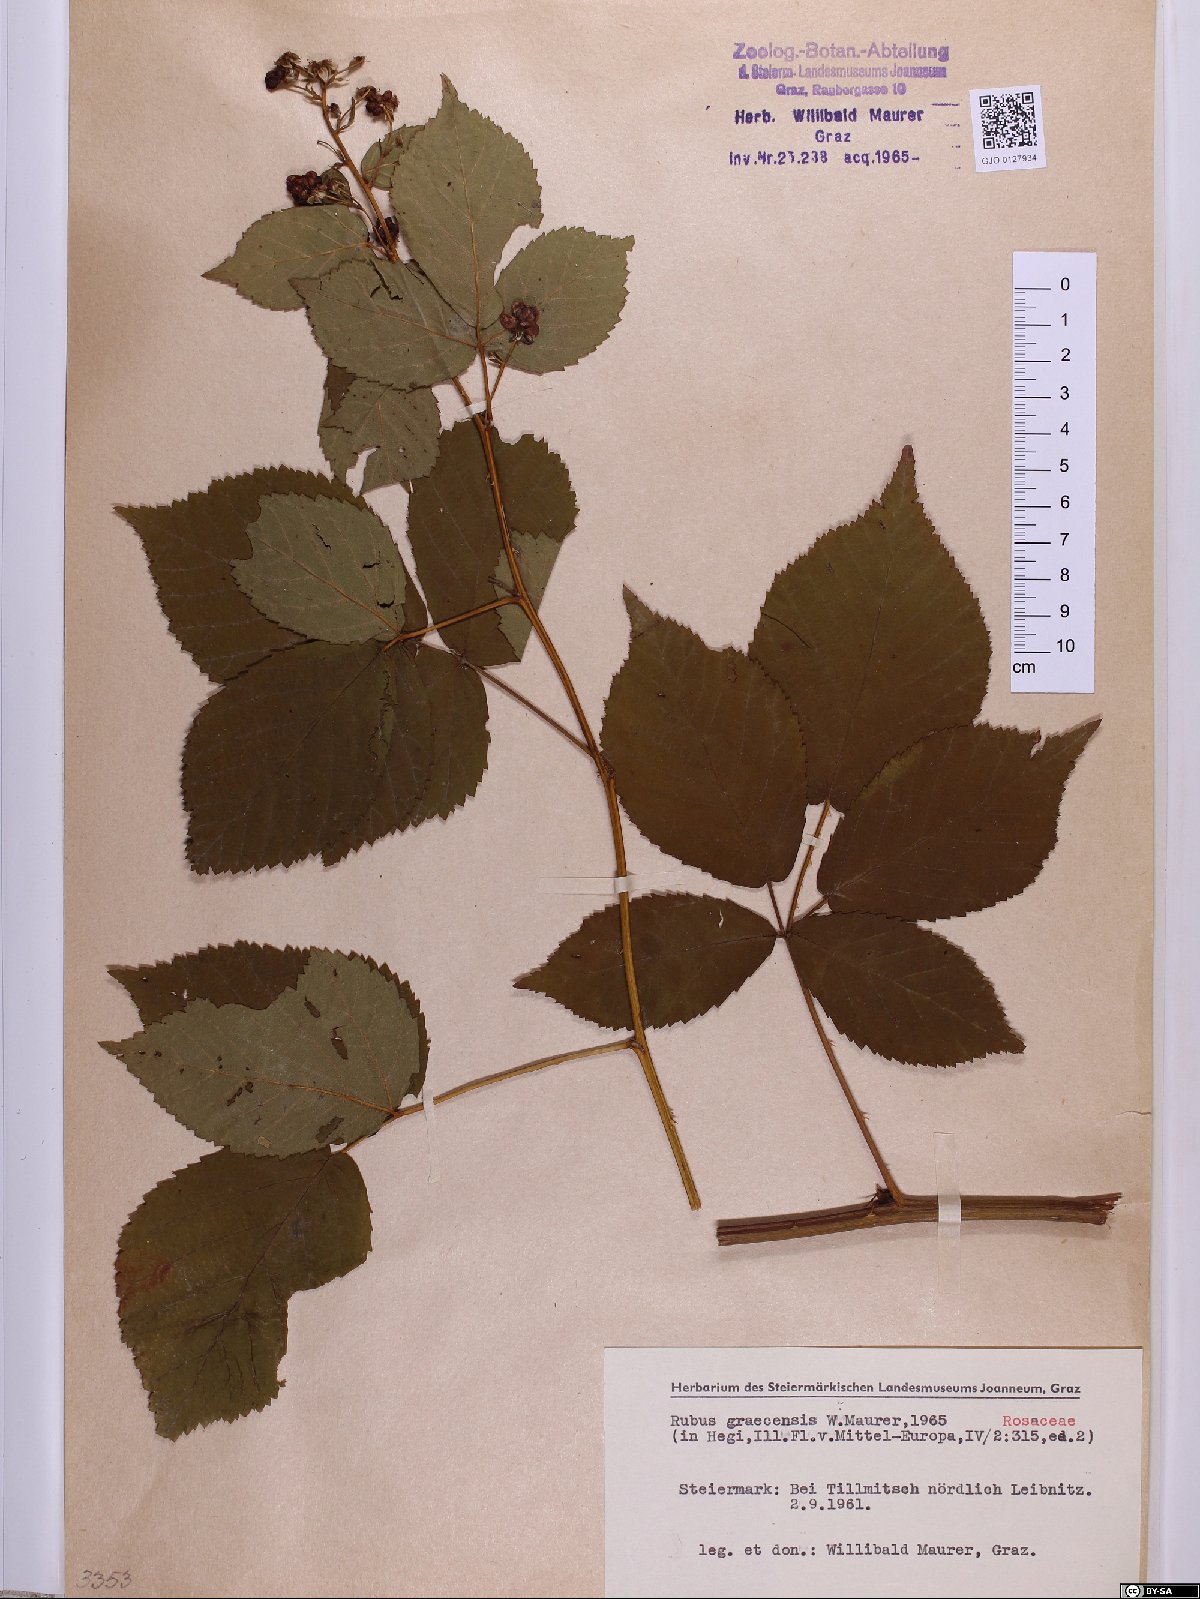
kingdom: Plantae
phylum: Tracheophyta
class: Magnoliopsida
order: Rosales
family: Rosaceae
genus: Rubus
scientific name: Rubus graecensis
